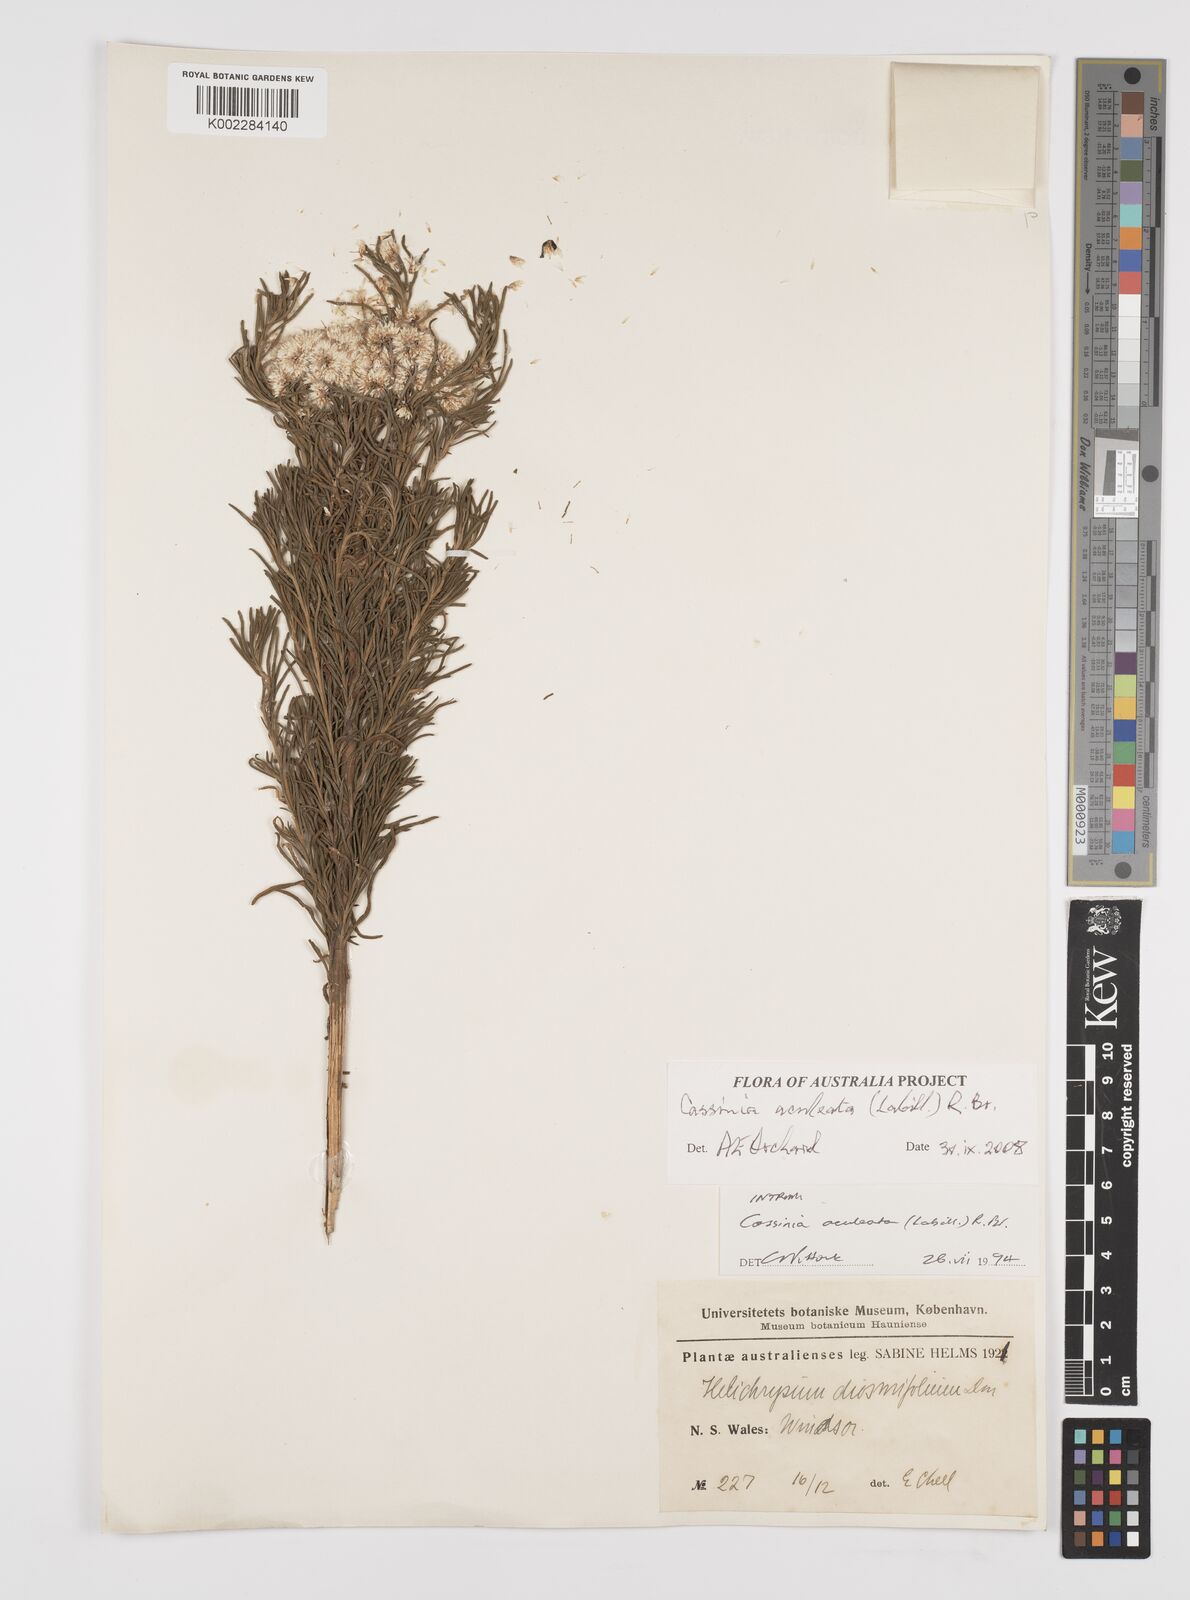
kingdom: Plantae
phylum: Tracheophyta
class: Magnoliopsida
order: Asterales
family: Asteraceae
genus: Cassinia
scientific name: Cassinia aculeata
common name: Australian tauhinu
